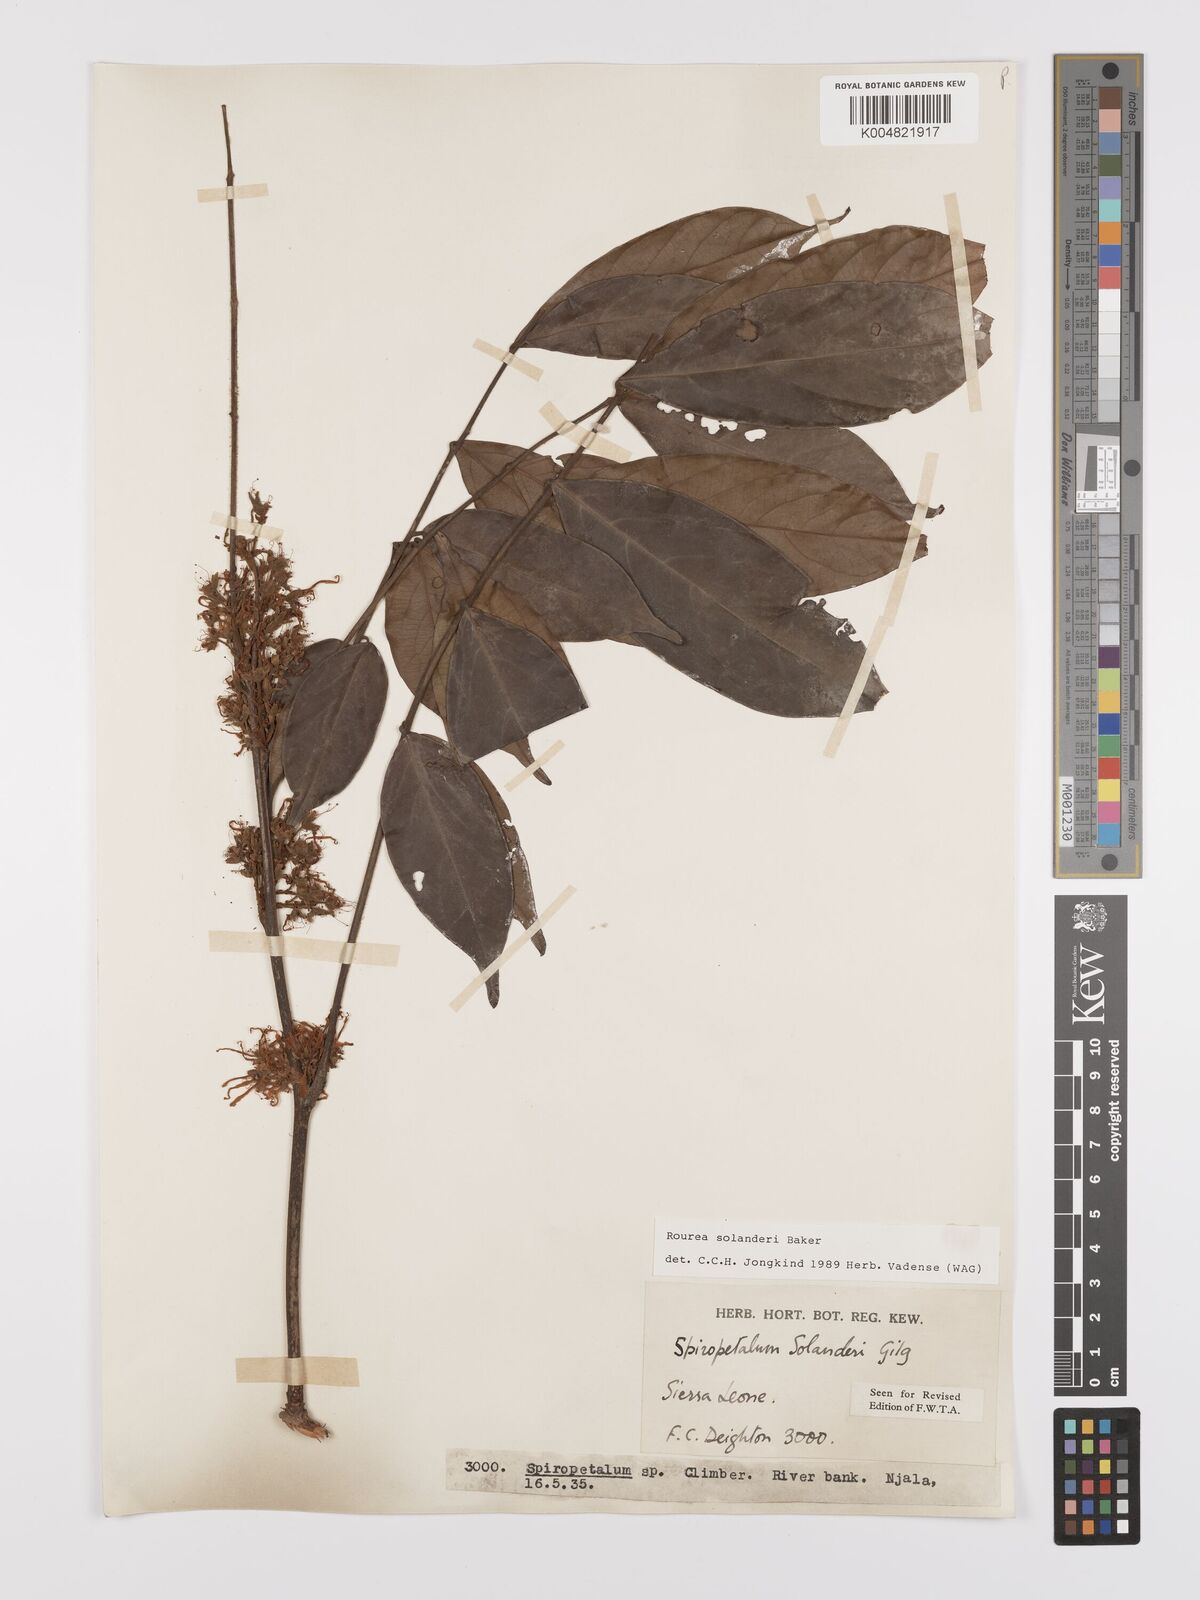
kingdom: Plantae
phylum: Tracheophyta
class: Magnoliopsida
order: Oxalidales
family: Connaraceae
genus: Rourea
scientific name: Rourea solanderi
